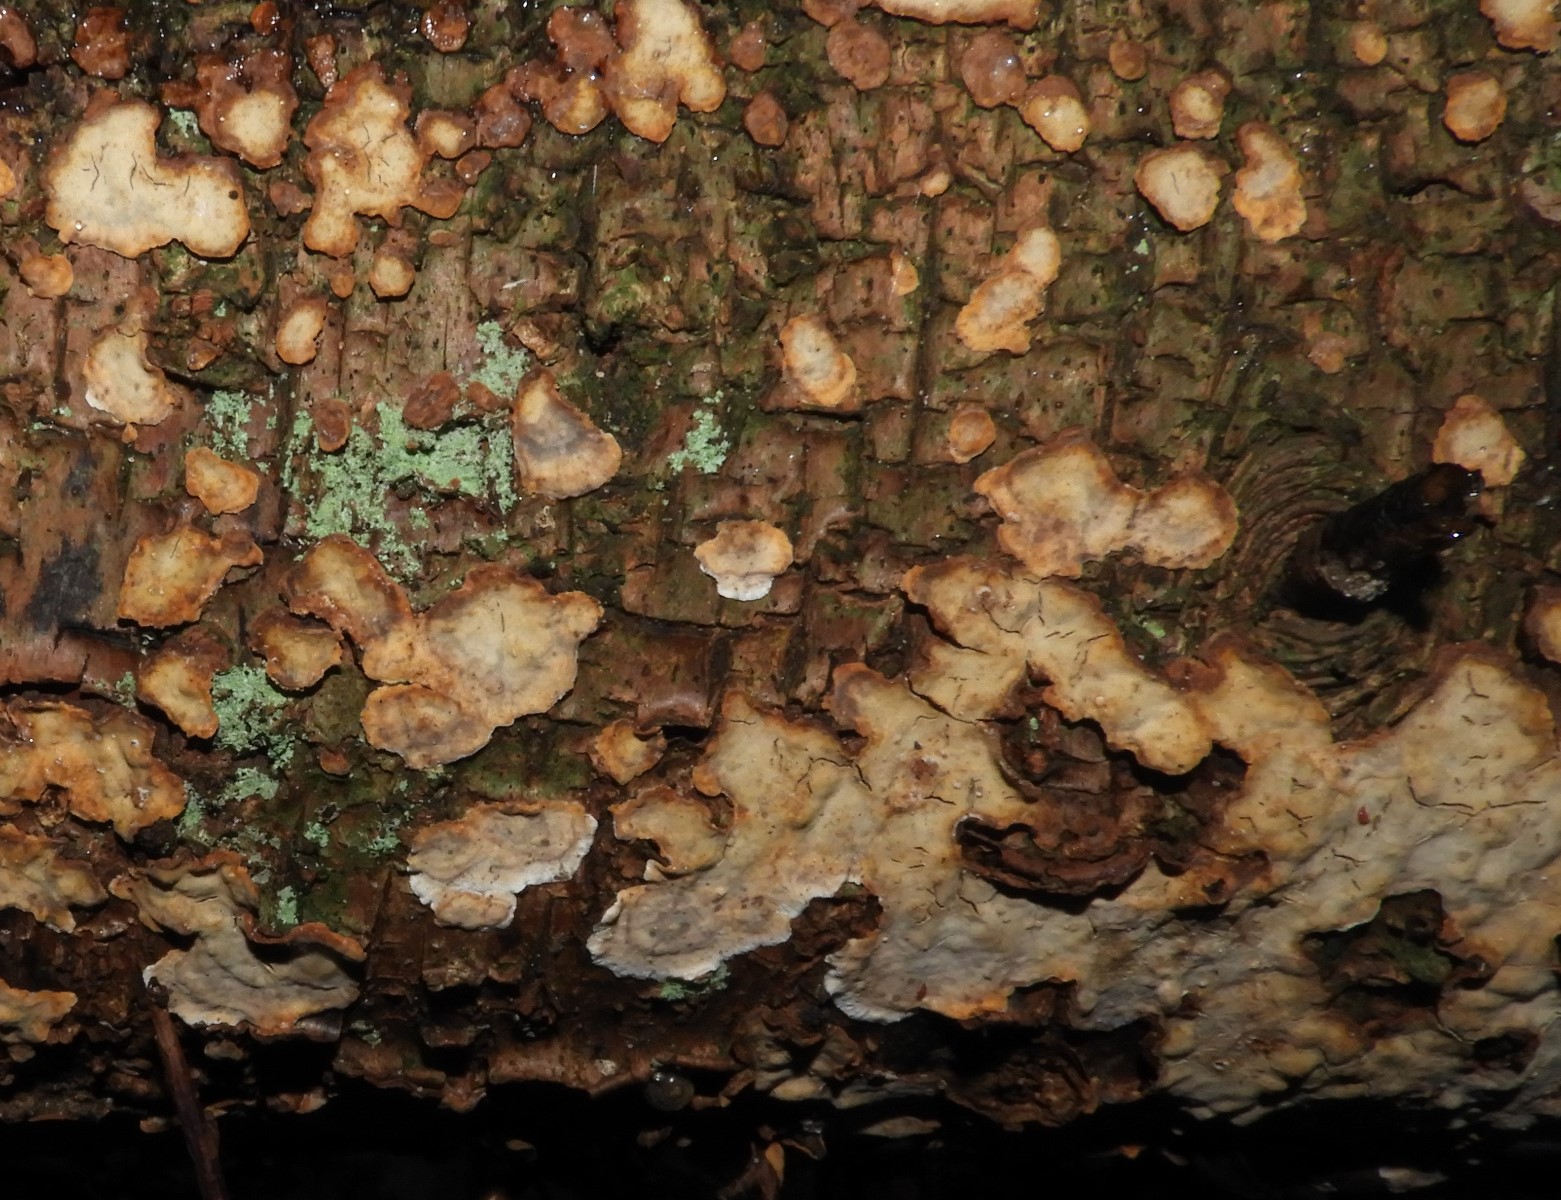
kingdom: Fungi
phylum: Basidiomycota
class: Agaricomycetes
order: Russulales
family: Stereaceae
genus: Stereum
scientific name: Stereum rugosum
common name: rynket lædersvamp
